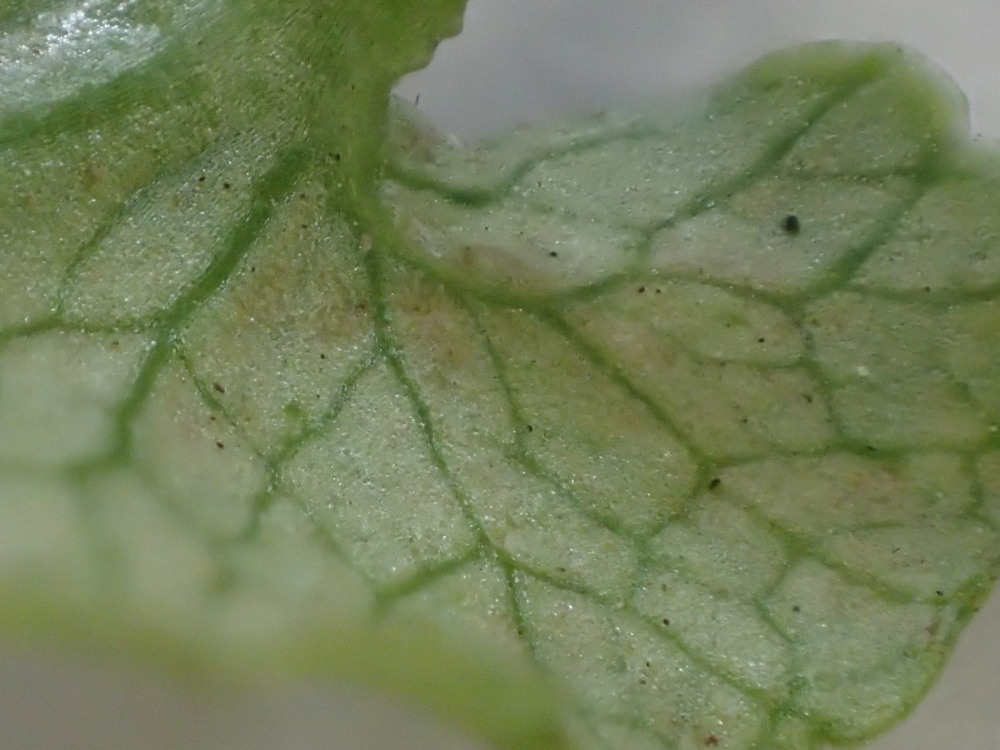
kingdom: Chromista
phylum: Oomycota
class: Peronosporea
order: Peronosporales
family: Peronosporaceae
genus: Peronospora
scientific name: Peronospora ficariae
